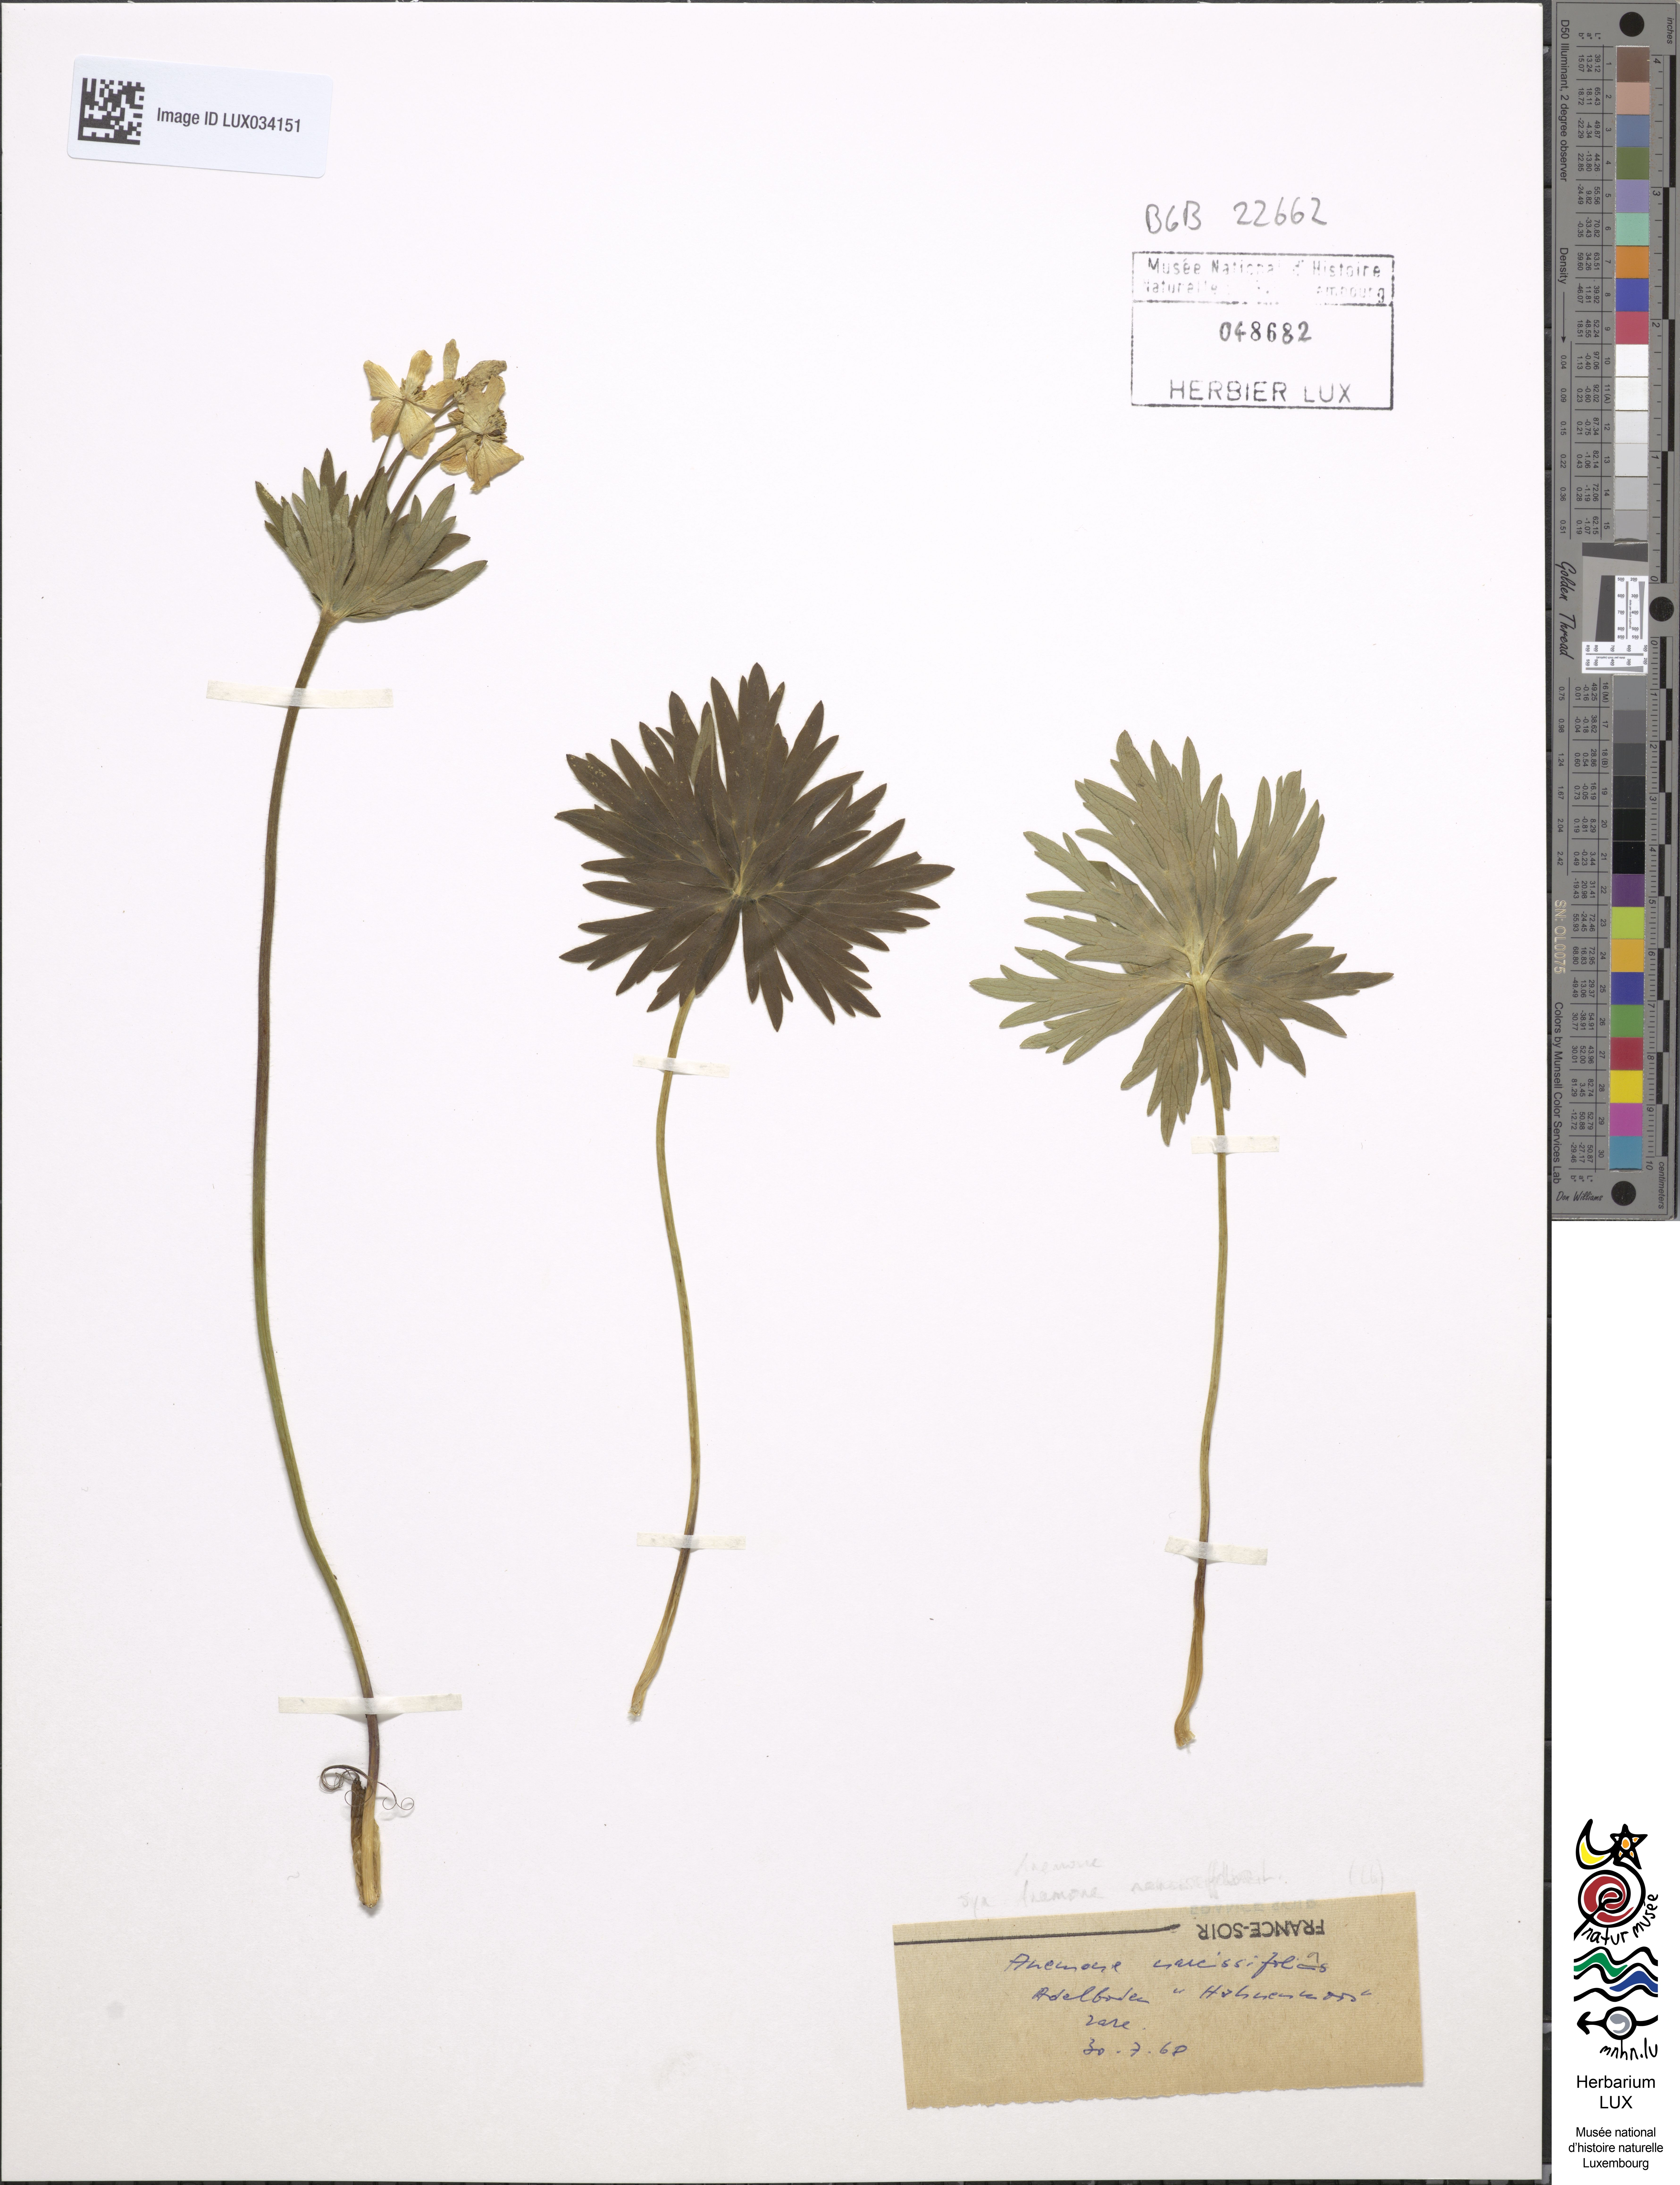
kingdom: Plantae
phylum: Tracheophyta
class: Magnoliopsida
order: Ranunculales
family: Ranunculaceae
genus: Anemone
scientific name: Anemone narcissifolia
